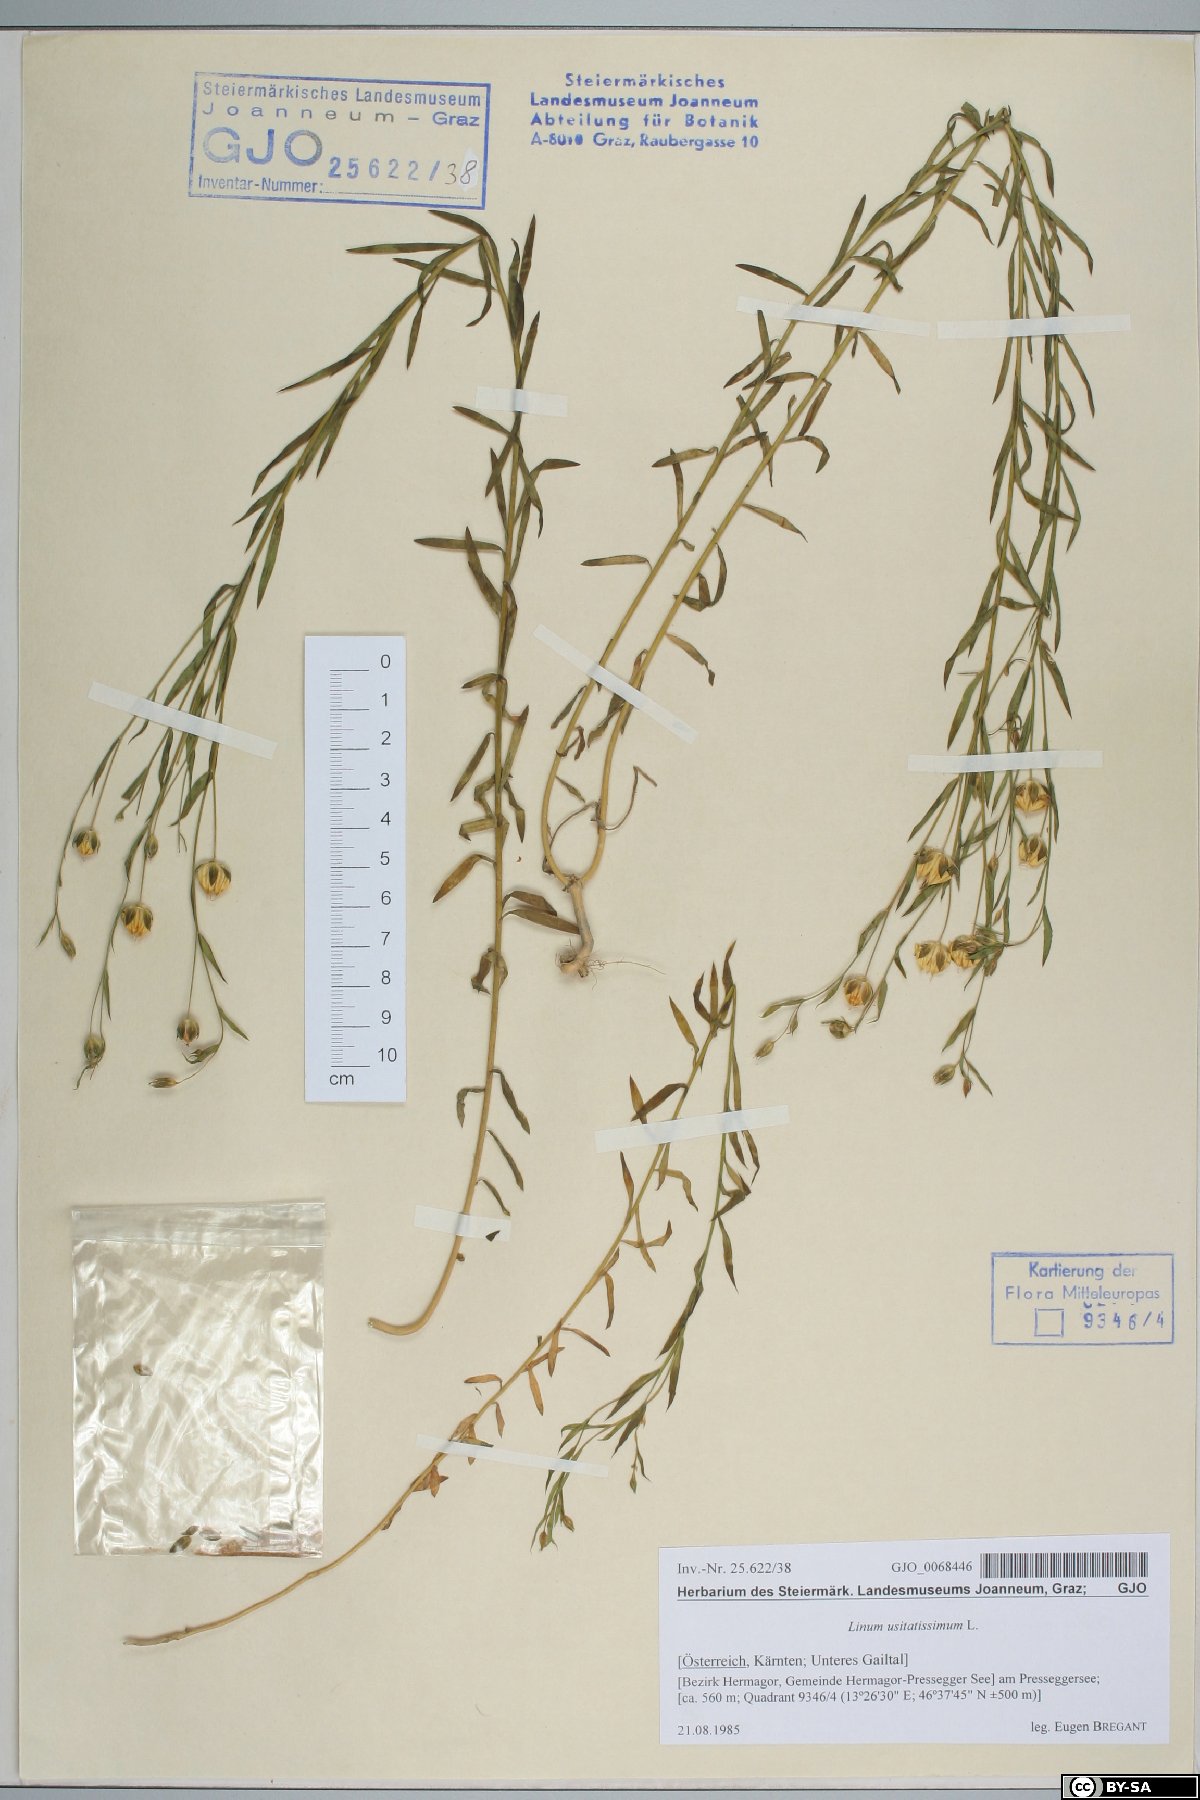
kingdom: Plantae
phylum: Tracheophyta
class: Magnoliopsida
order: Malpighiales
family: Linaceae
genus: Linum
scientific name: Linum usitatissimum
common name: Flax
